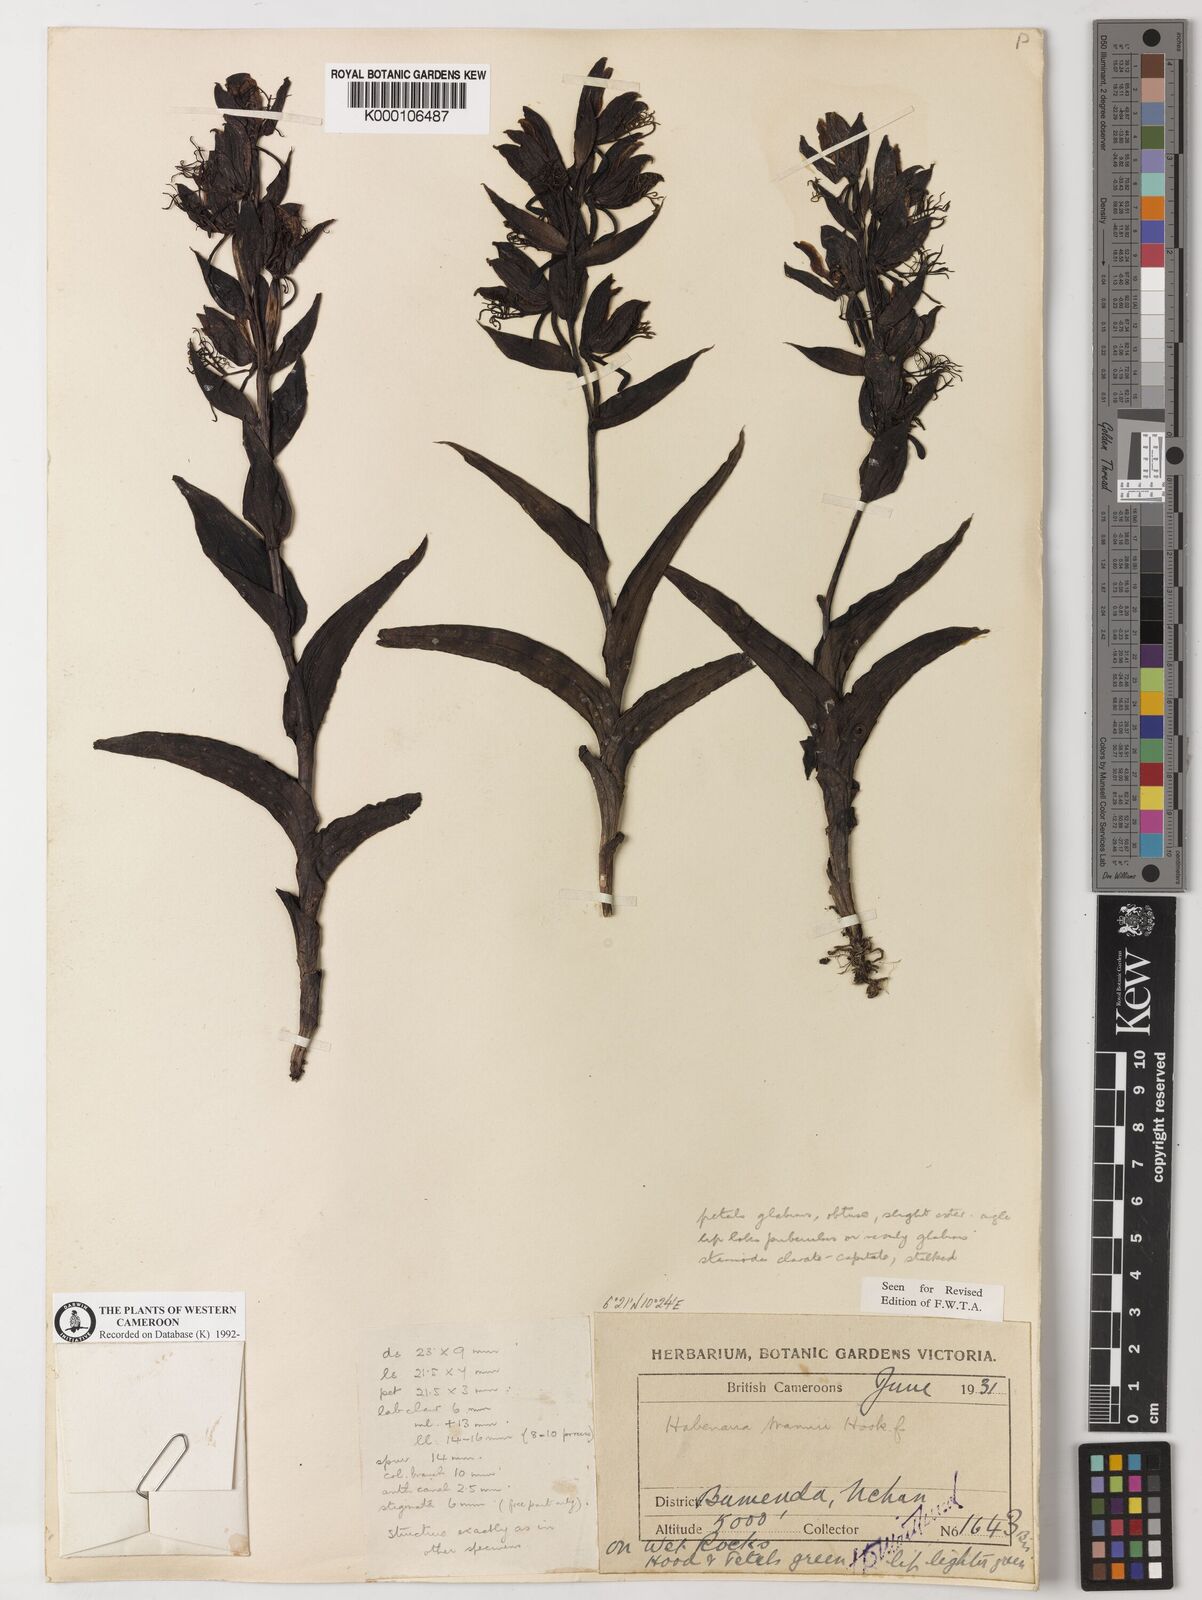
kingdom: Plantae
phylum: Tracheophyta
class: Liliopsida
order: Asparagales
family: Orchidaceae
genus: Habenaria
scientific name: Habenaria mannii
